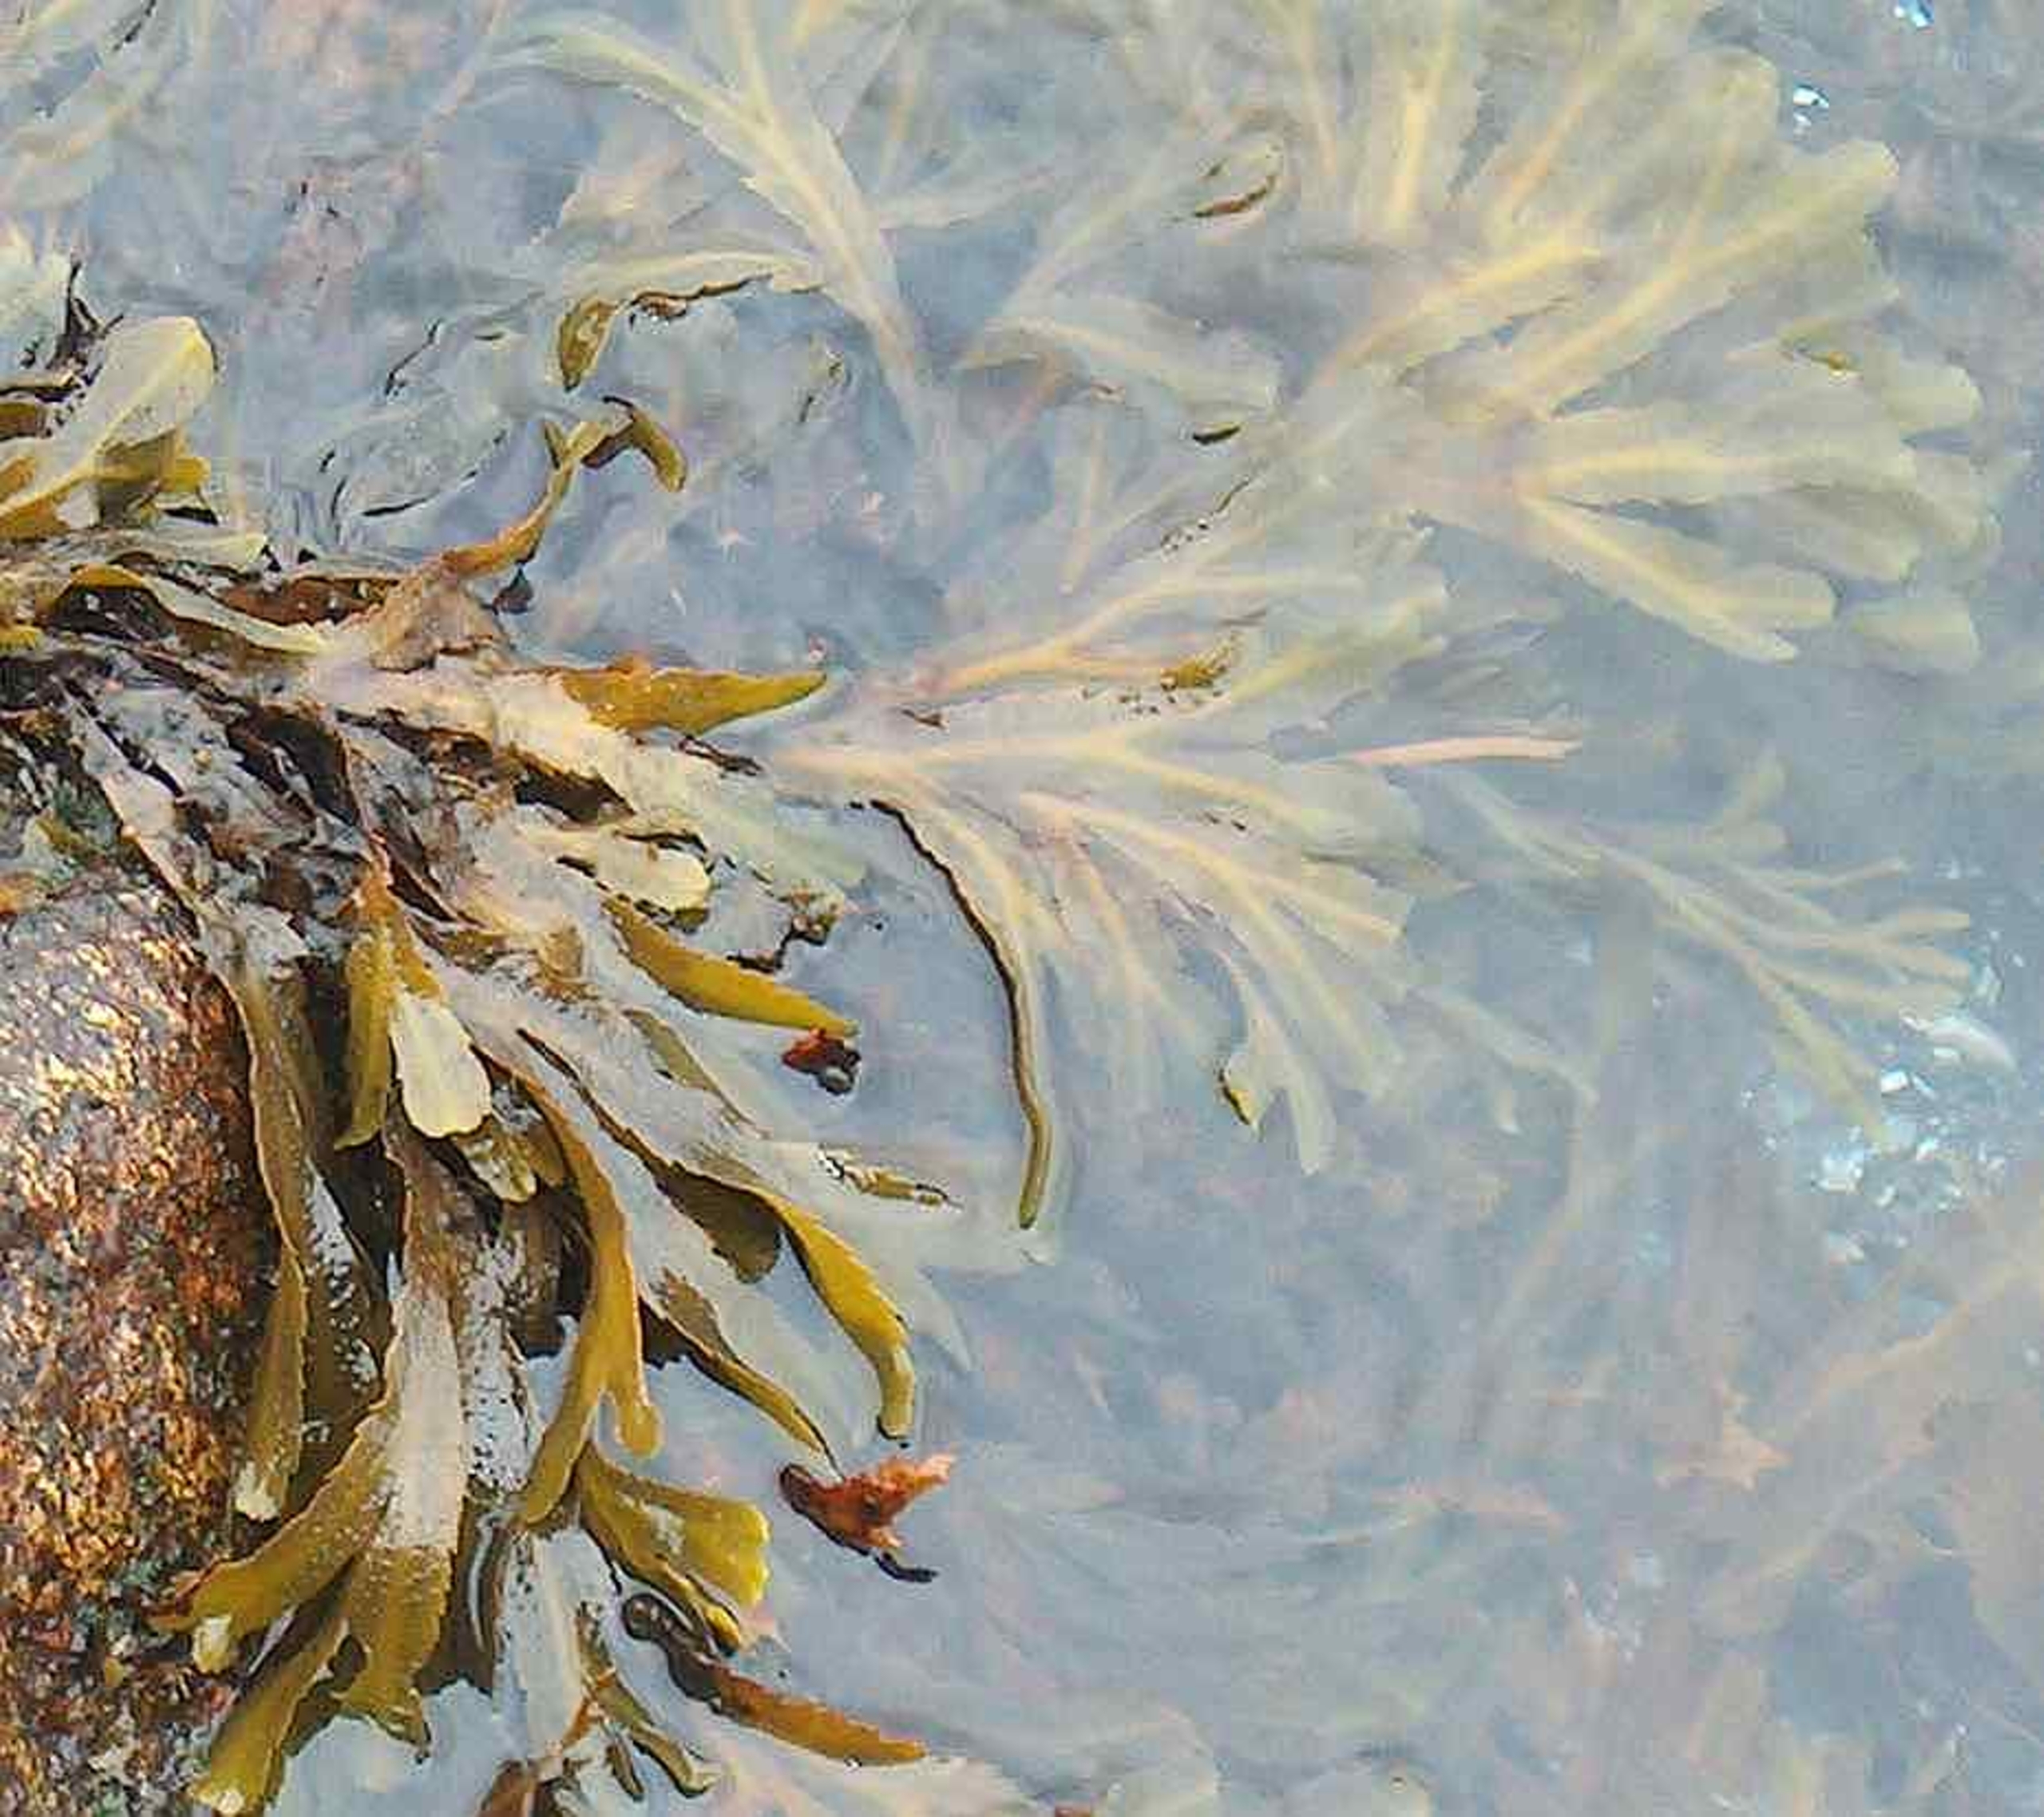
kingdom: Chromista
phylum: Ochrophyta
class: Phaeophyceae
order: Fucales
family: Fucaceae
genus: Fucus
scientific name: Fucus serratus
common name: Savtang
